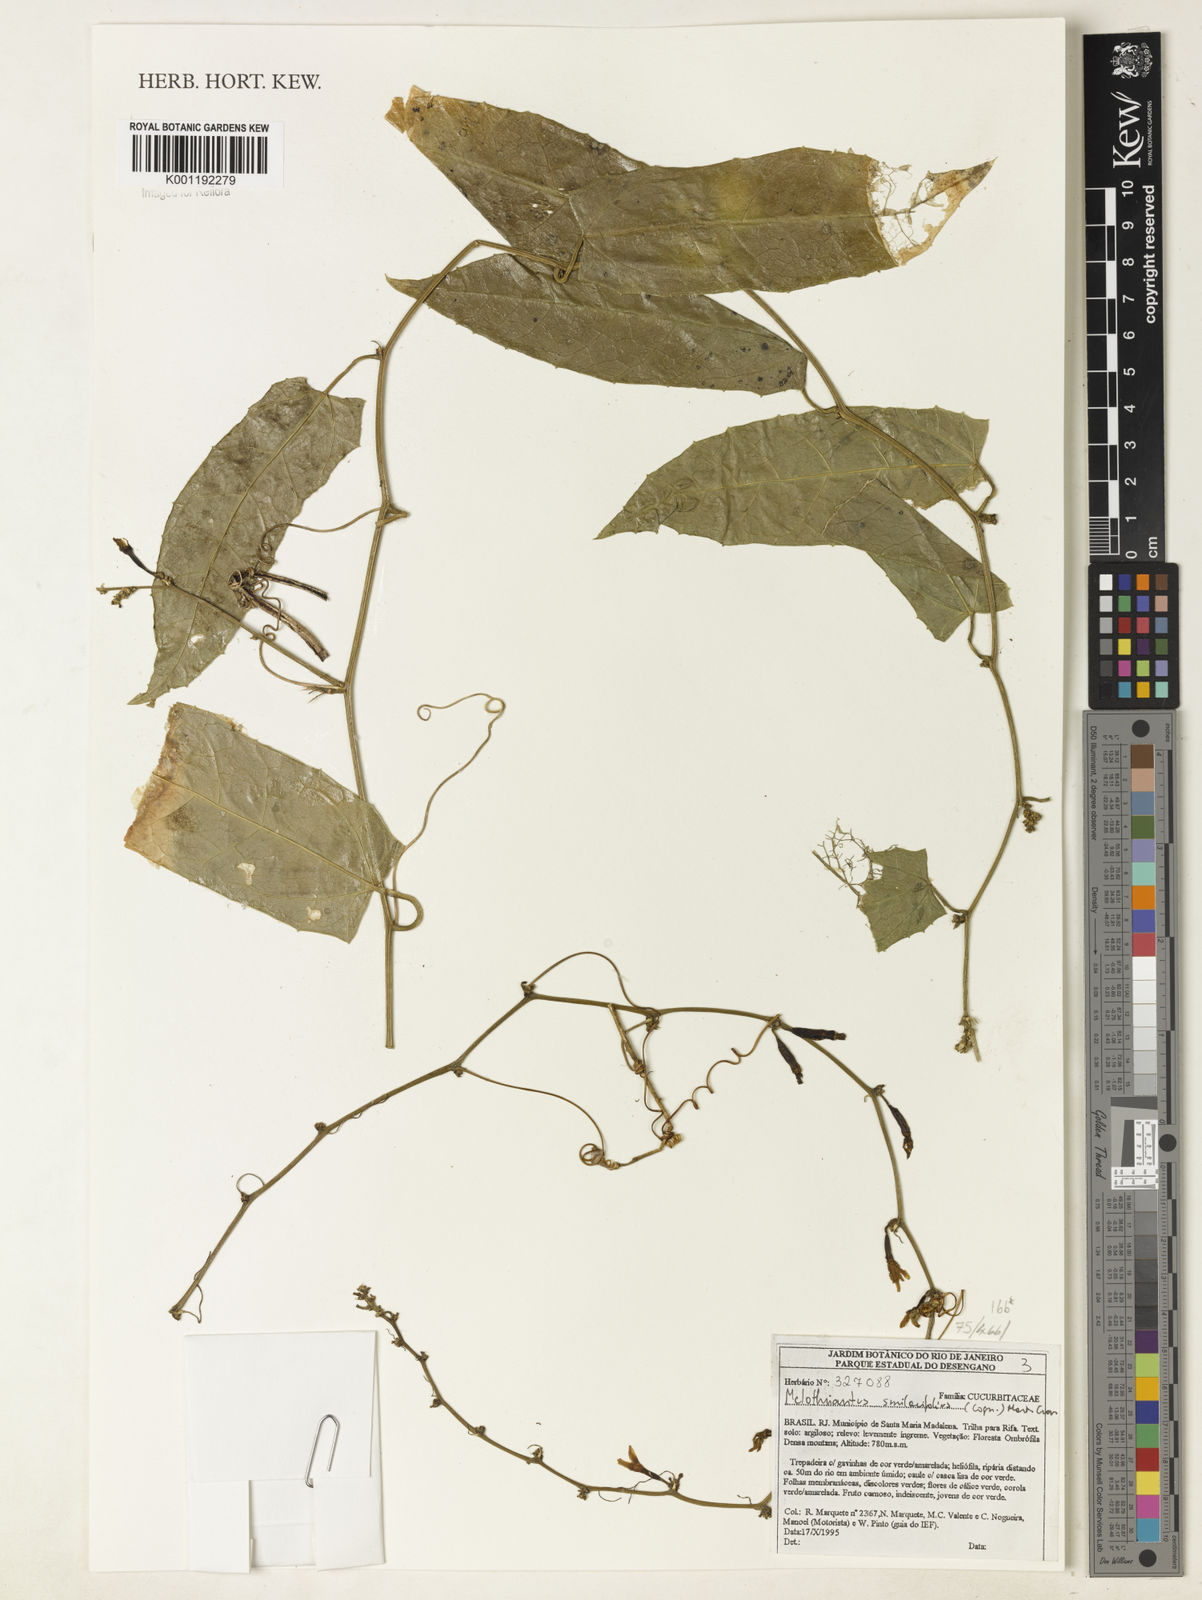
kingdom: Plantae
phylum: Tracheophyta
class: Magnoliopsida
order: Cucurbitales
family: Cucurbitaceae
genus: Apodanthera
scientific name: Apodanthera smilacifolia
